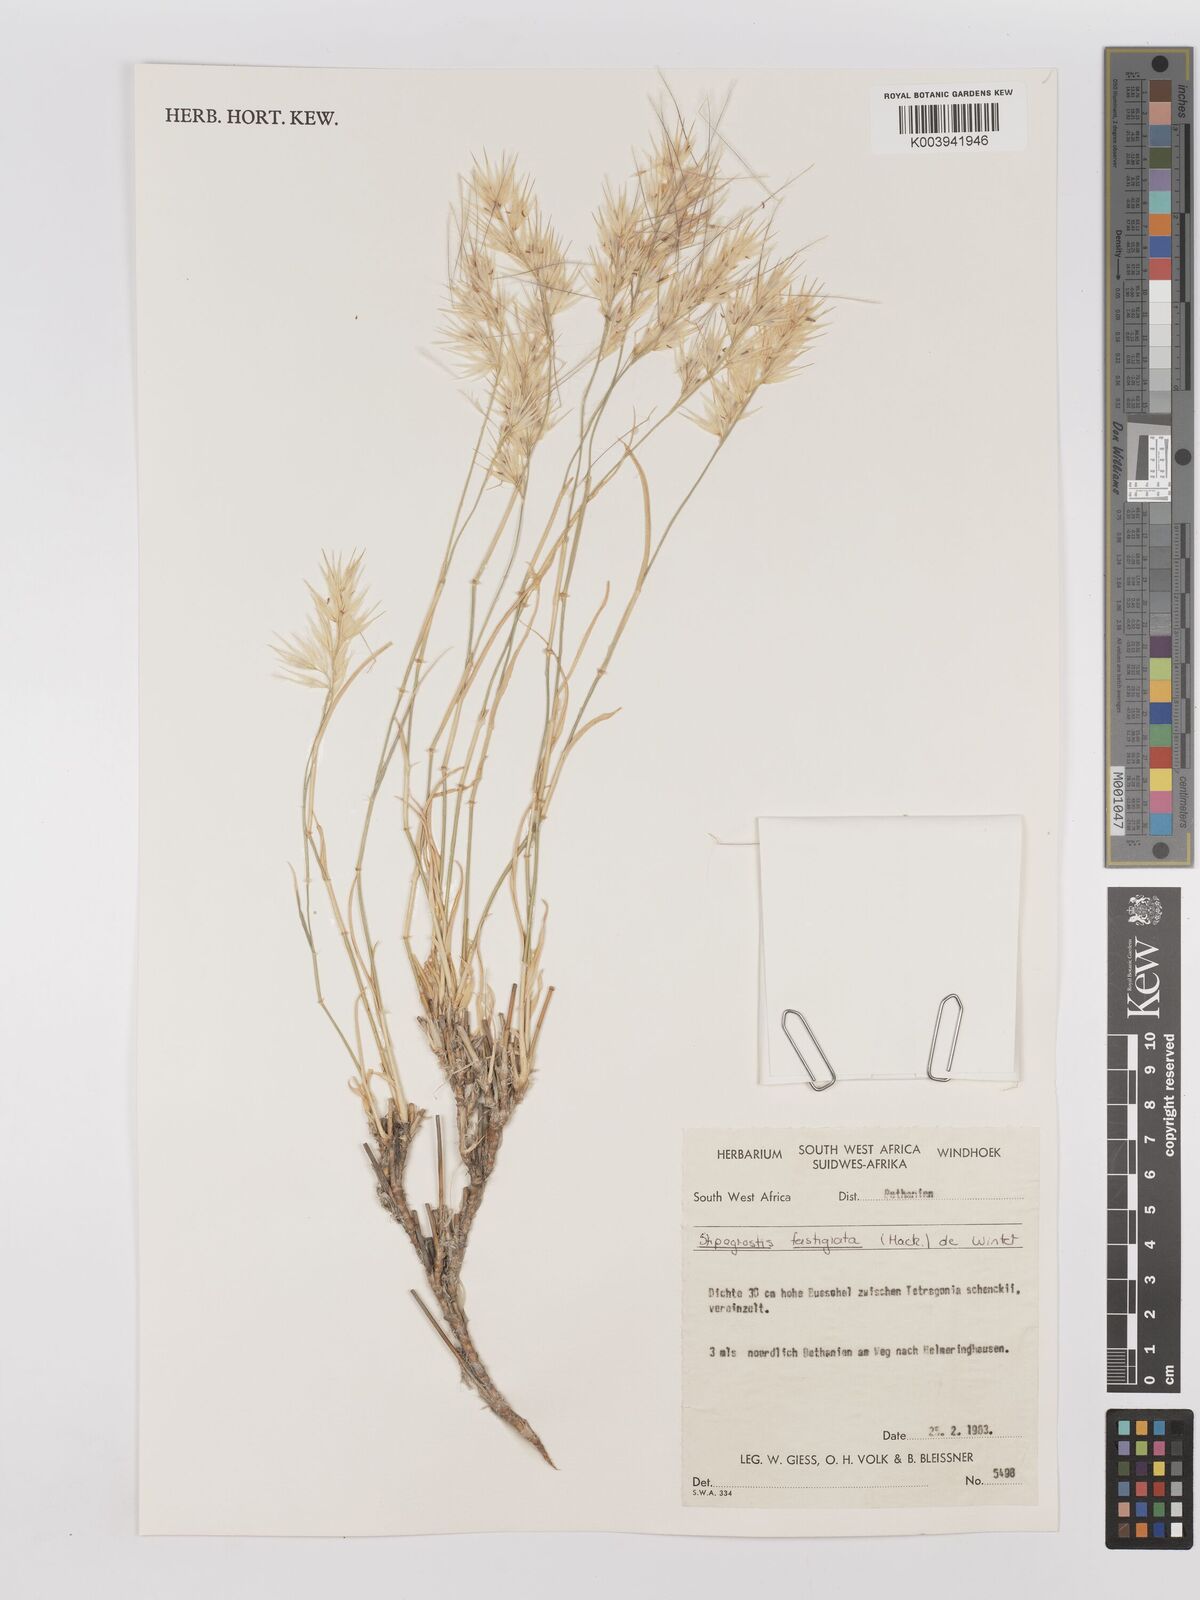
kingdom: Plantae
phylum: Tracheophyta
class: Liliopsida
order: Poales
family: Poaceae
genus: Stipagrostis
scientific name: Stipagrostis fastigiata
